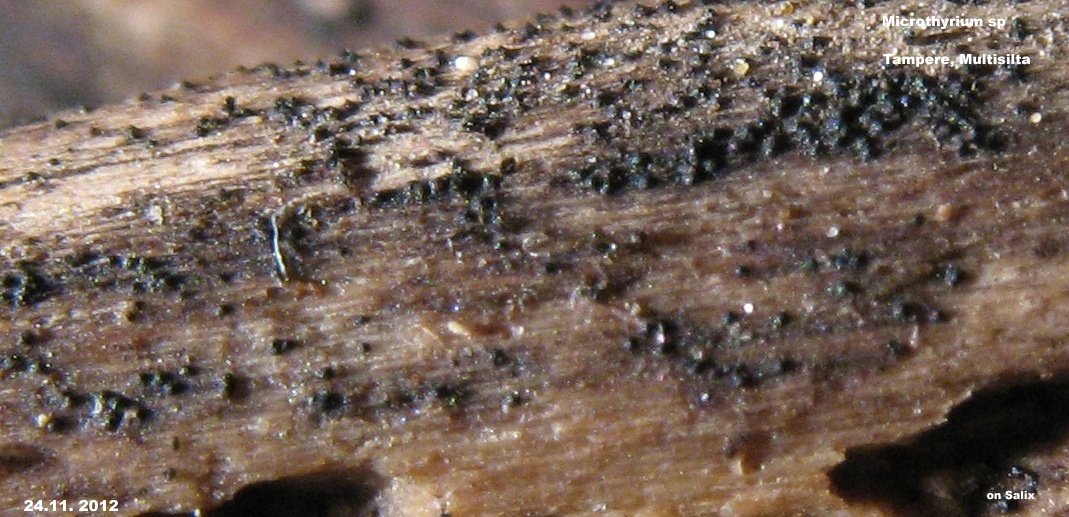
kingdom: Fungi
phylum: Ascomycota
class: Dothideomycetes
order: Microthyriales
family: Microthyriaceae
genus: Microthyrium
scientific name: Microthyrium
